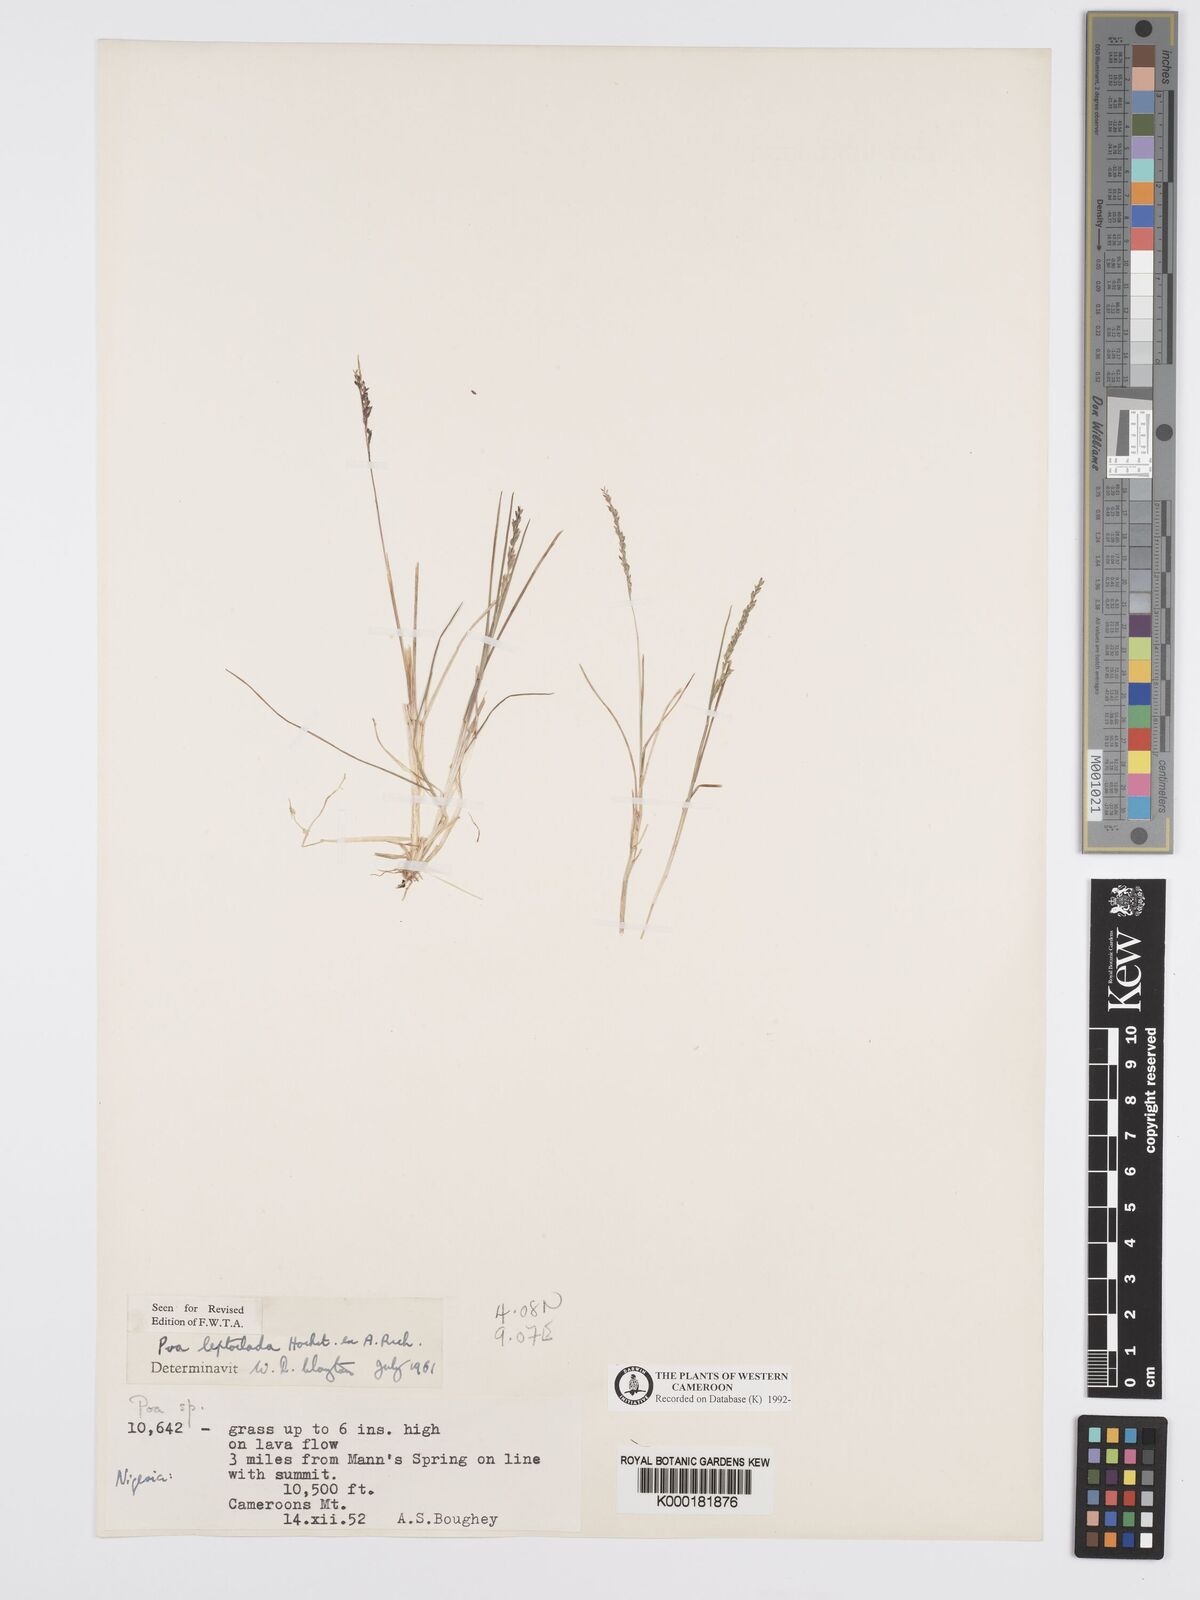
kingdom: Plantae
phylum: Tracheophyta
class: Liliopsida
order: Poales
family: Poaceae
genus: Poa
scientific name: Poa leptoclada
